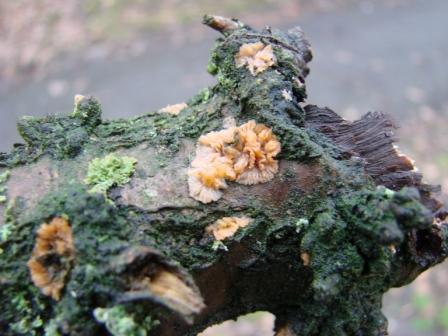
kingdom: Fungi
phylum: Basidiomycota
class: Agaricomycetes
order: Polyporales
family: Meruliaceae
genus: Phlebia
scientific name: Phlebia radiata
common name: stråle-åresvamp
